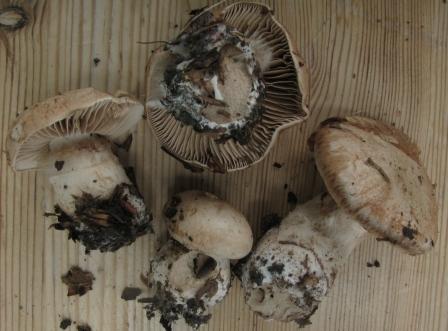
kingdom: Fungi
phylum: Basidiomycota
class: Agaricomycetes
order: Agaricales
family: Cortinariaceae
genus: Cortinarius
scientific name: Cortinarius
